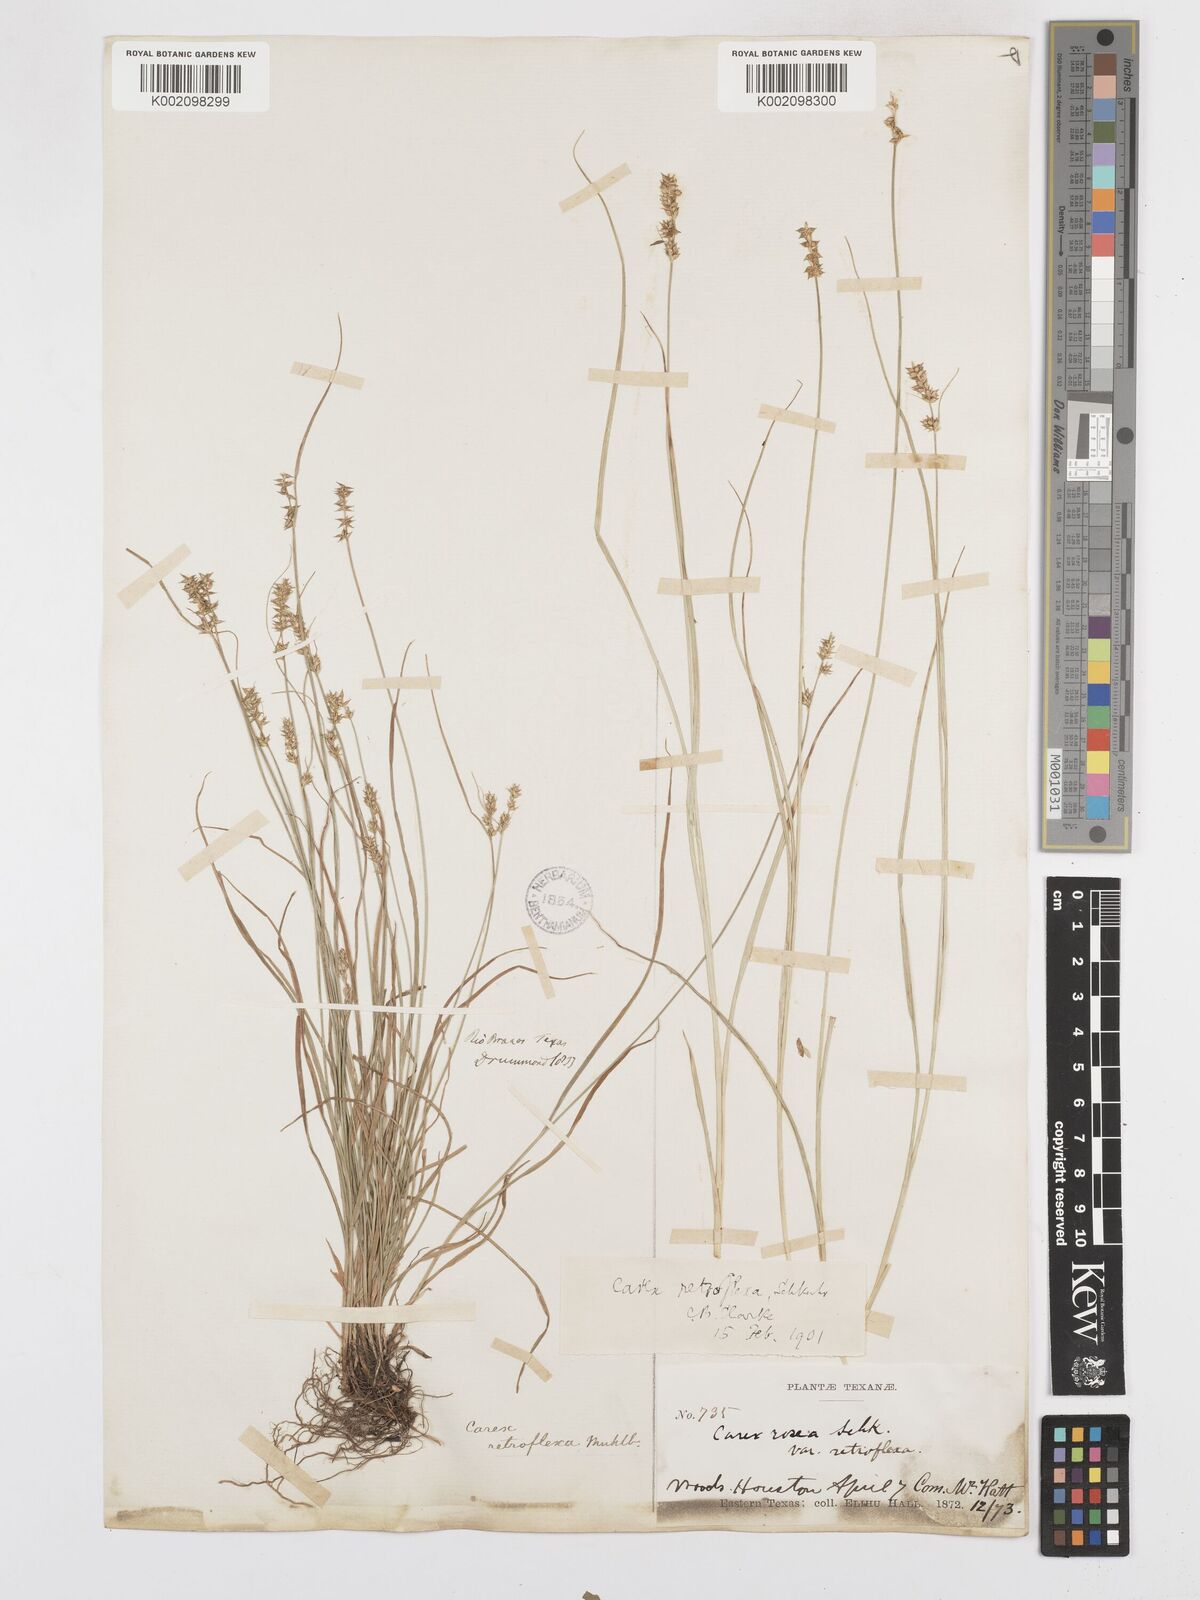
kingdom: Plantae
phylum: Tracheophyta
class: Liliopsida
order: Poales
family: Cyperaceae
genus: Carex
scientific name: Carex retroflexa
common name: Reflexed sedge
